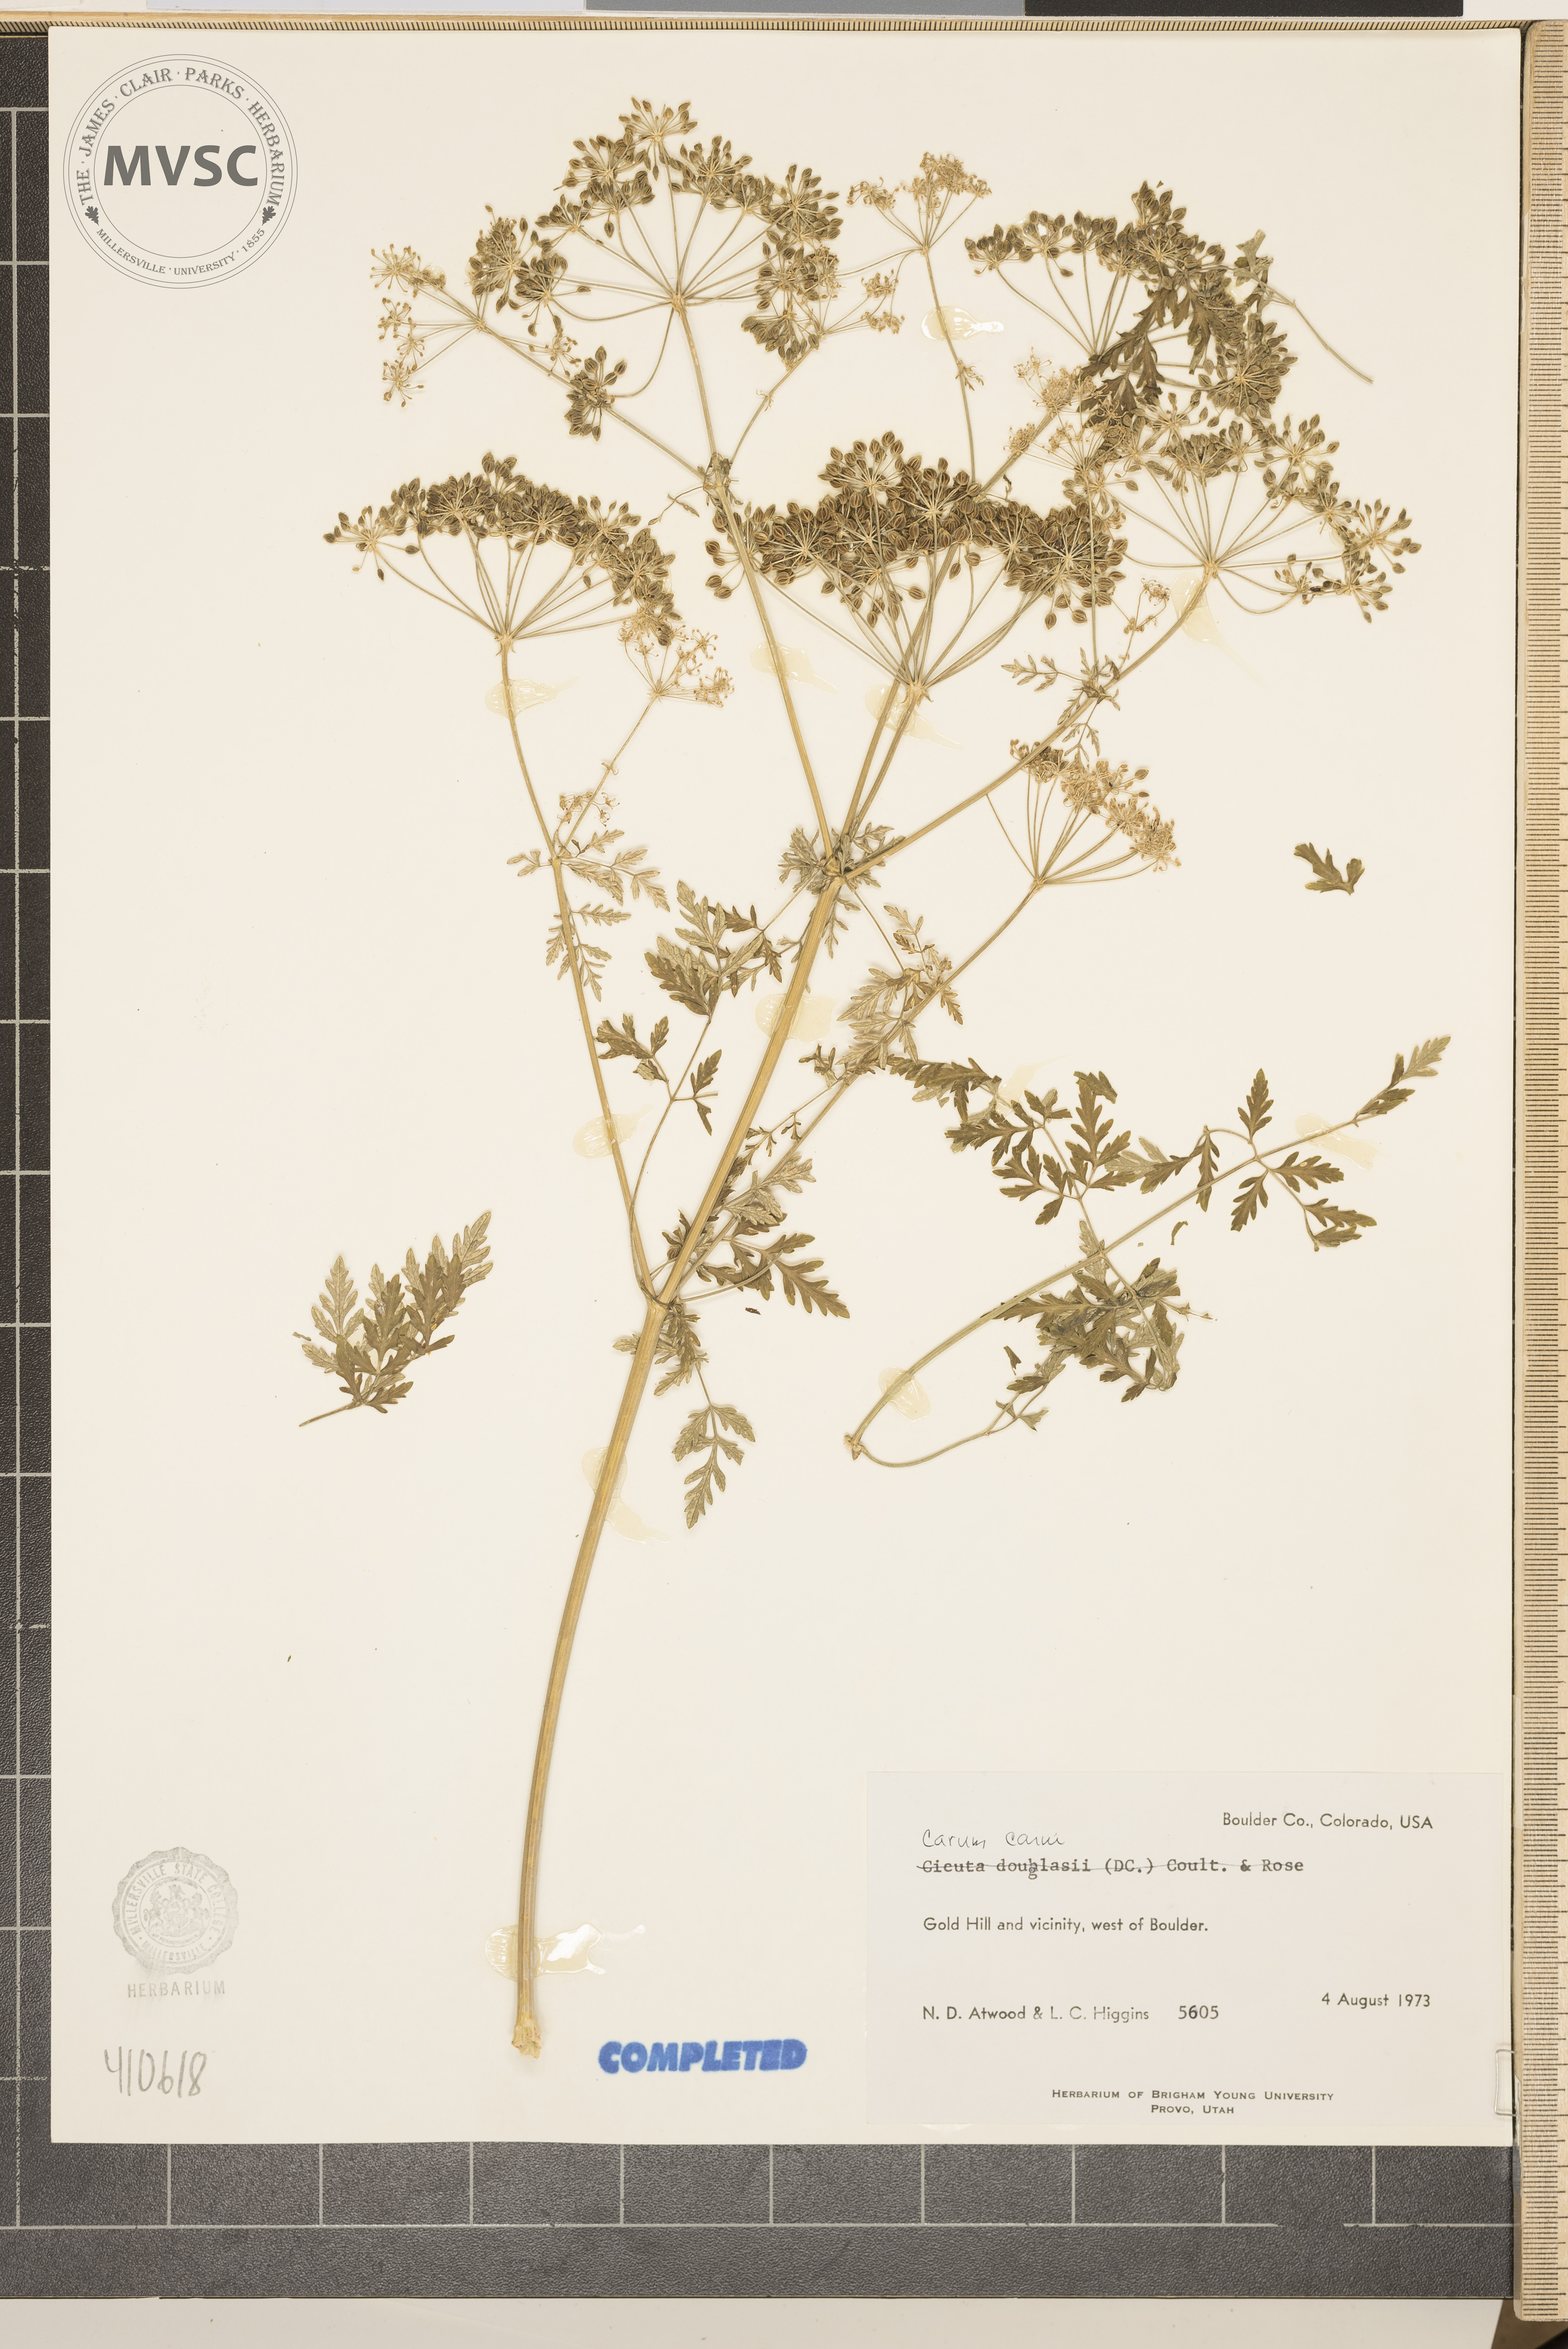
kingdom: Plantae
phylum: Tracheophyta
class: Magnoliopsida
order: Apiales
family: Apiaceae
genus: Carum
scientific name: Carum carvi
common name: Caraway
